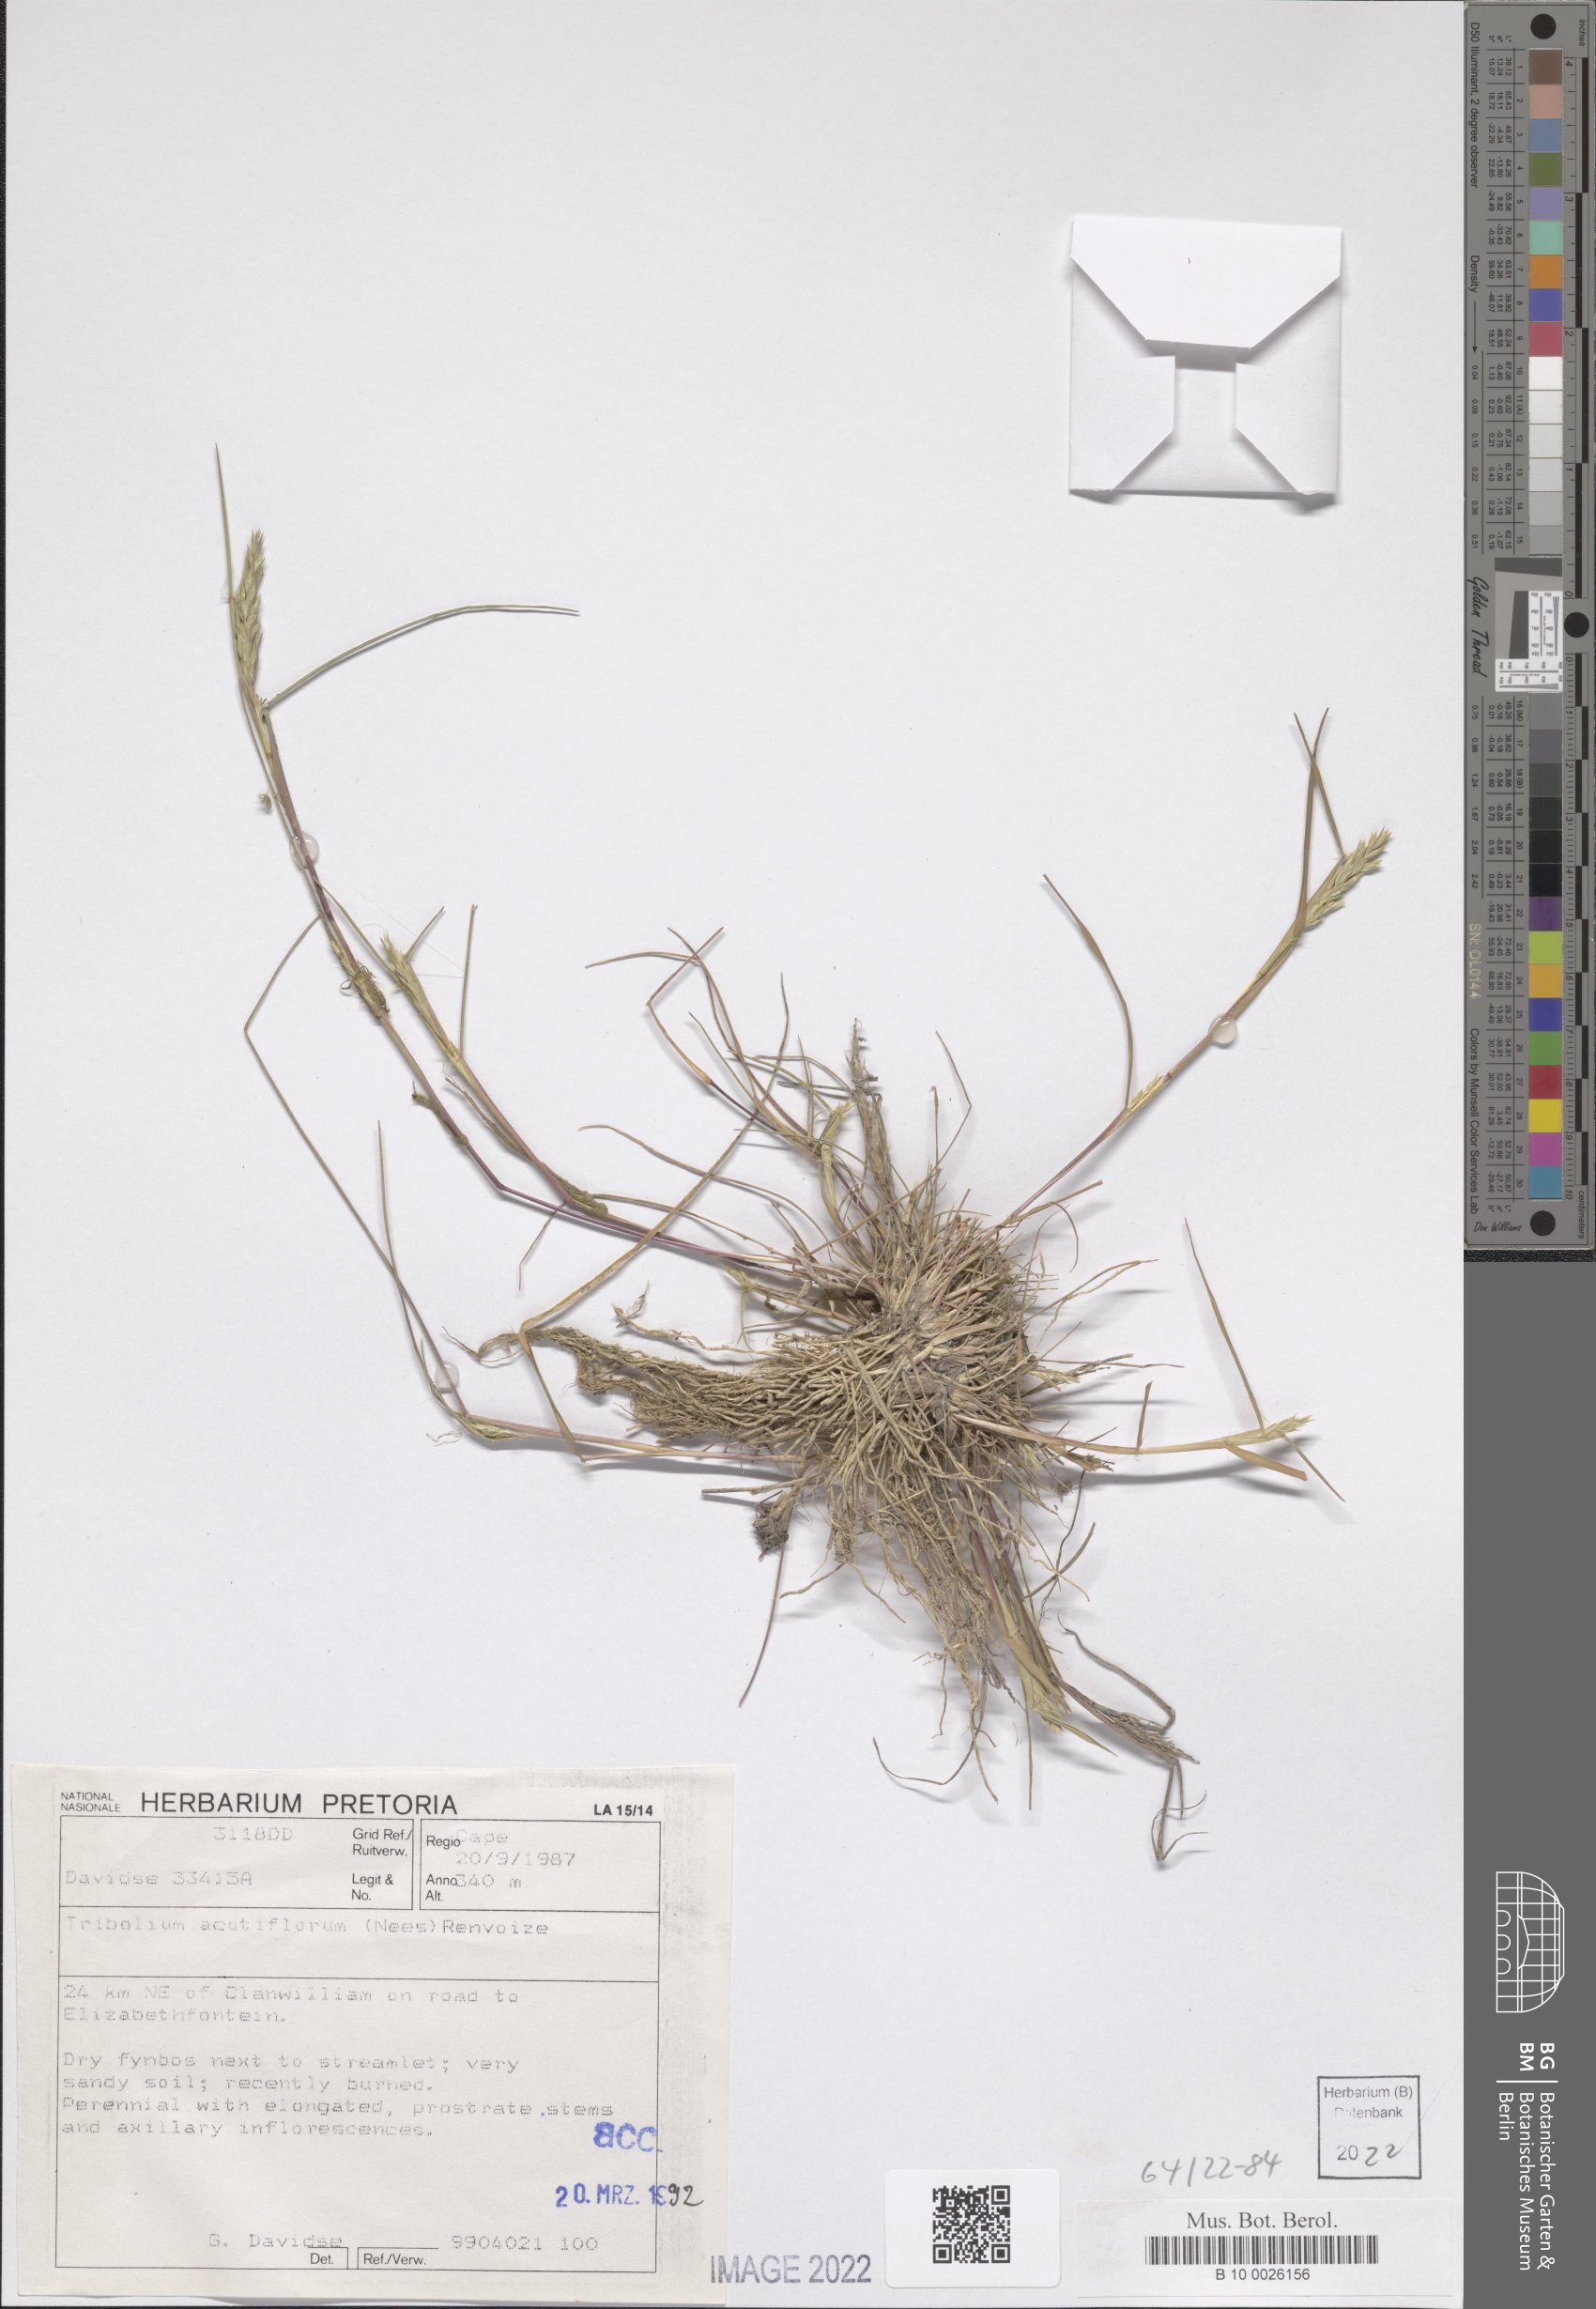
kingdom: Plantae
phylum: Tracheophyta
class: Liliopsida
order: Poales
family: Poaceae
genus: Tribolium
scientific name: Tribolium acutiflorum
